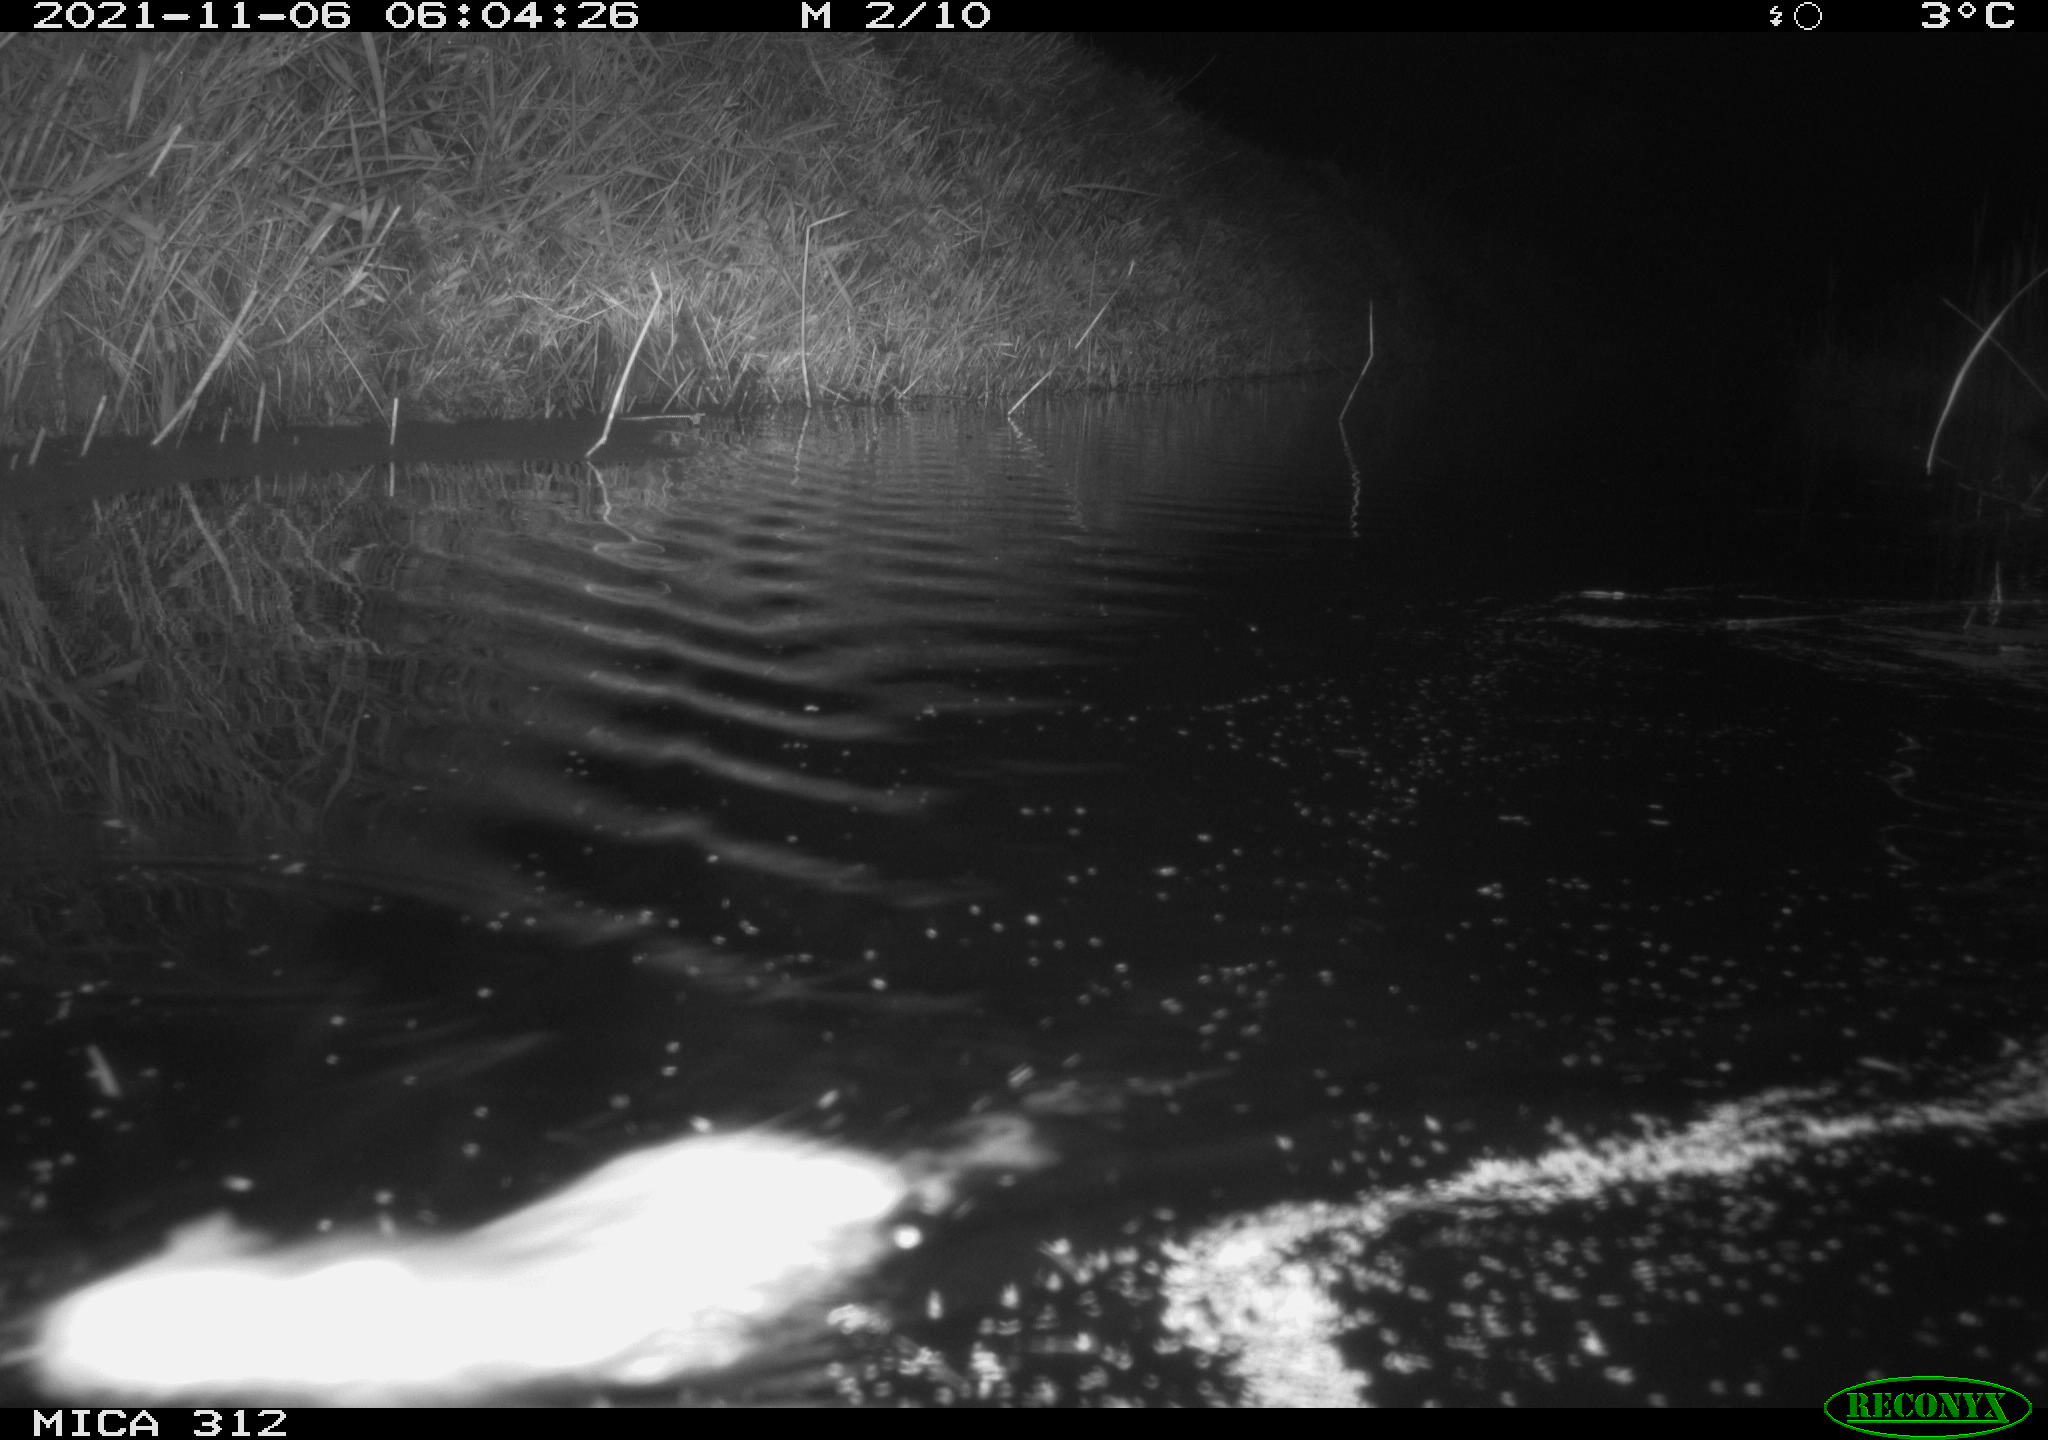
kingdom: Animalia
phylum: Chordata
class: Mammalia
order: Rodentia
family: Muridae
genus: Rattus
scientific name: Rattus norvegicus
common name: Brown rat
